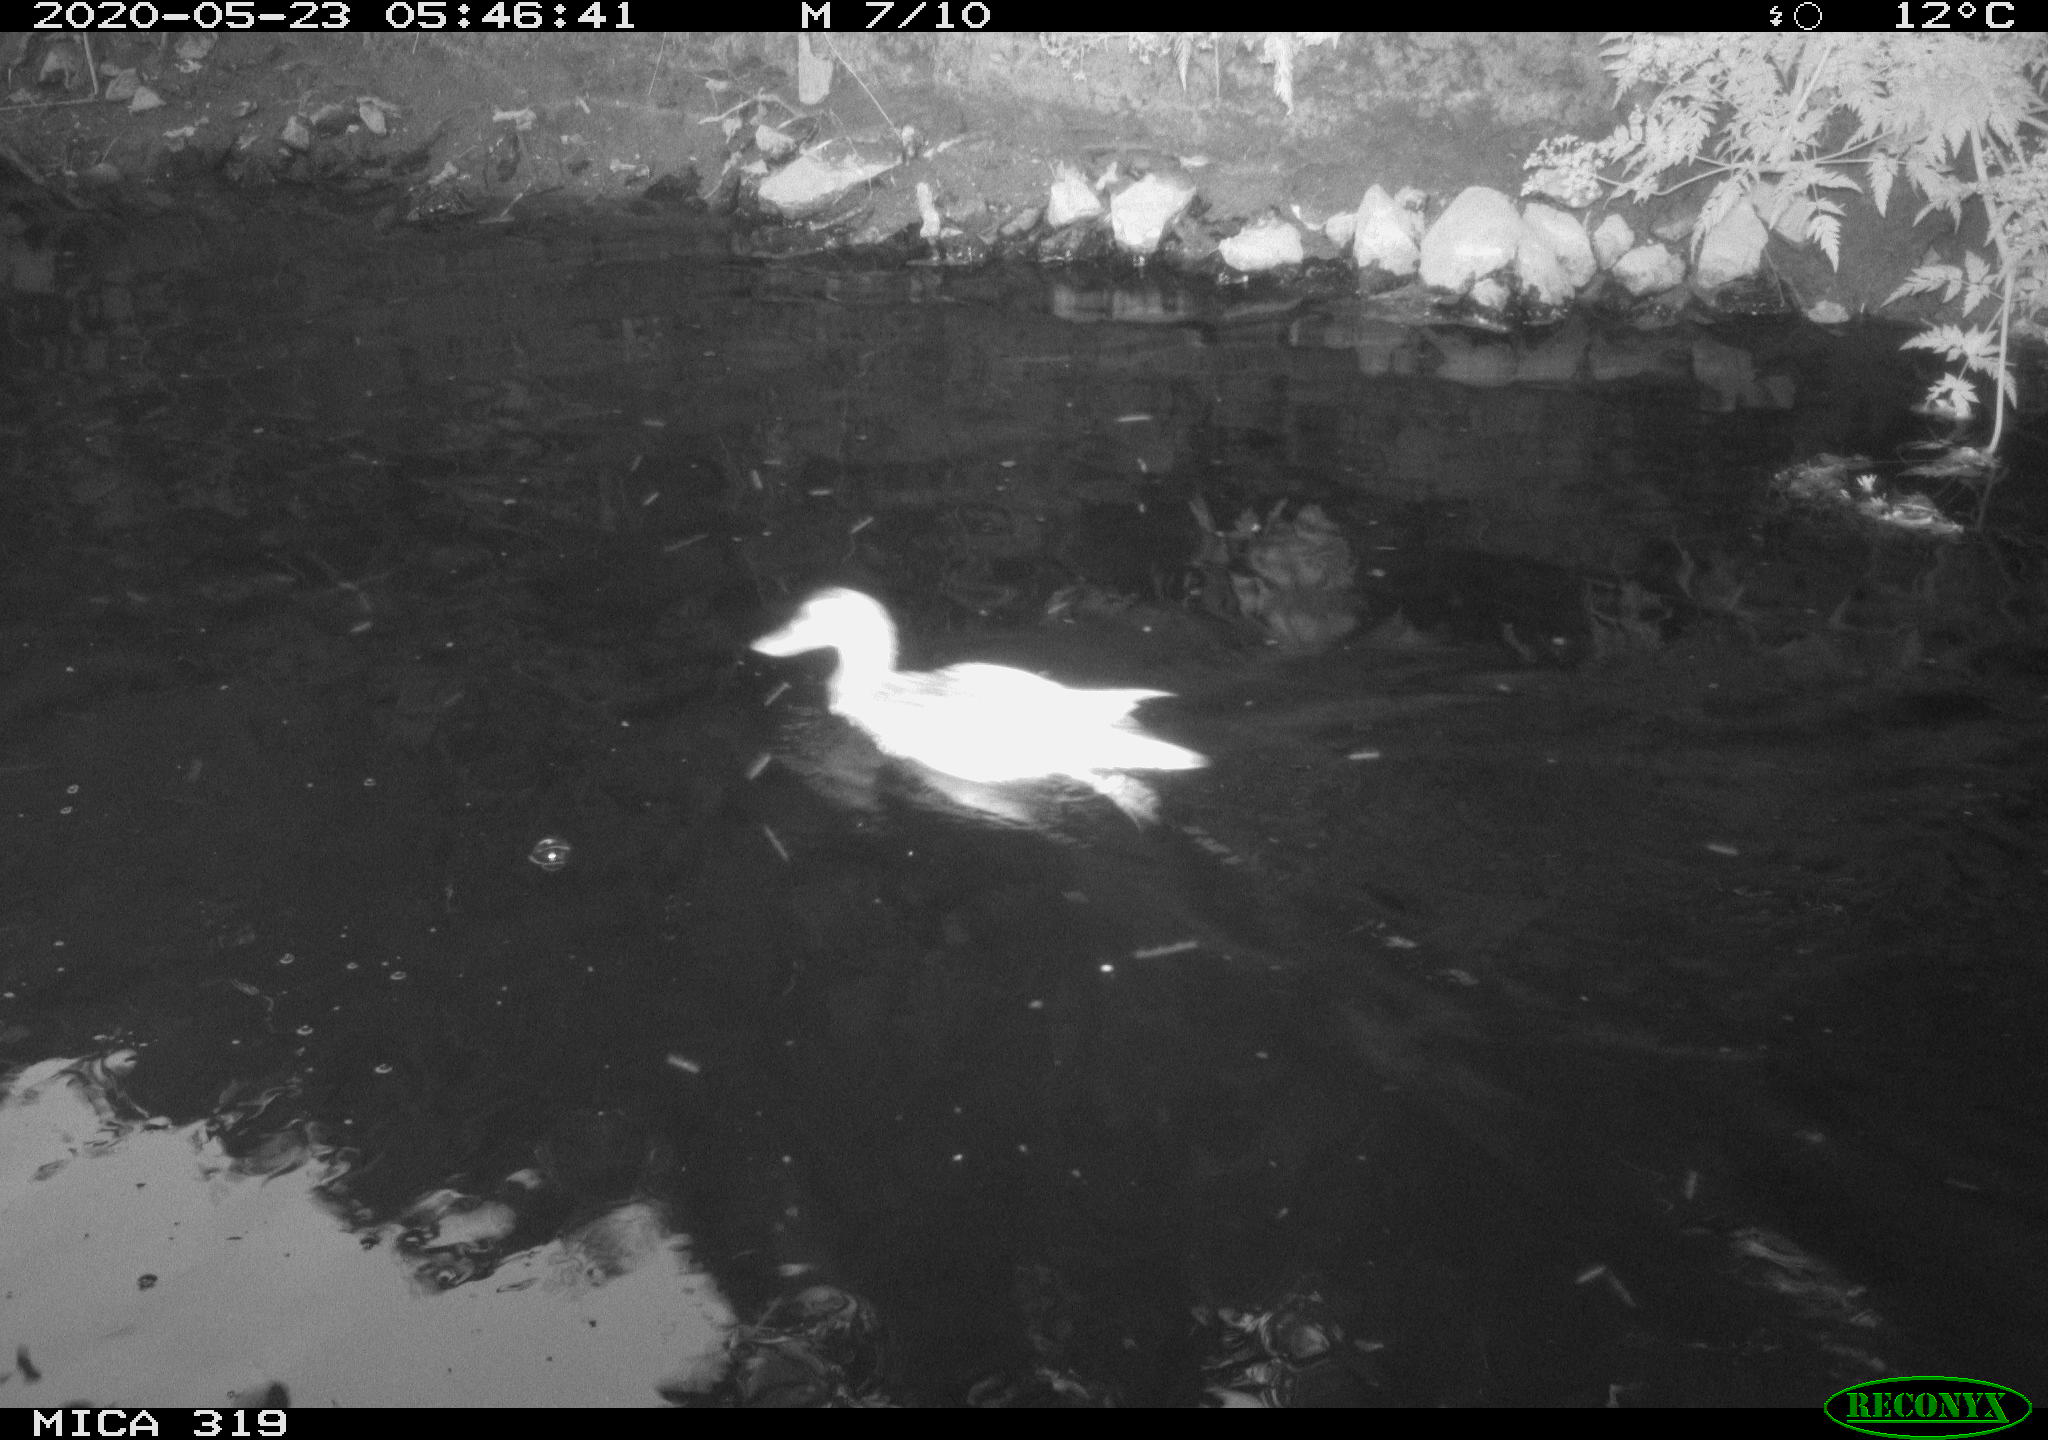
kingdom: Animalia
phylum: Chordata
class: Aves
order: Anseriformes
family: Anatidae
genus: Anas
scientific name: Anas platyrhynchos
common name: Mallard
